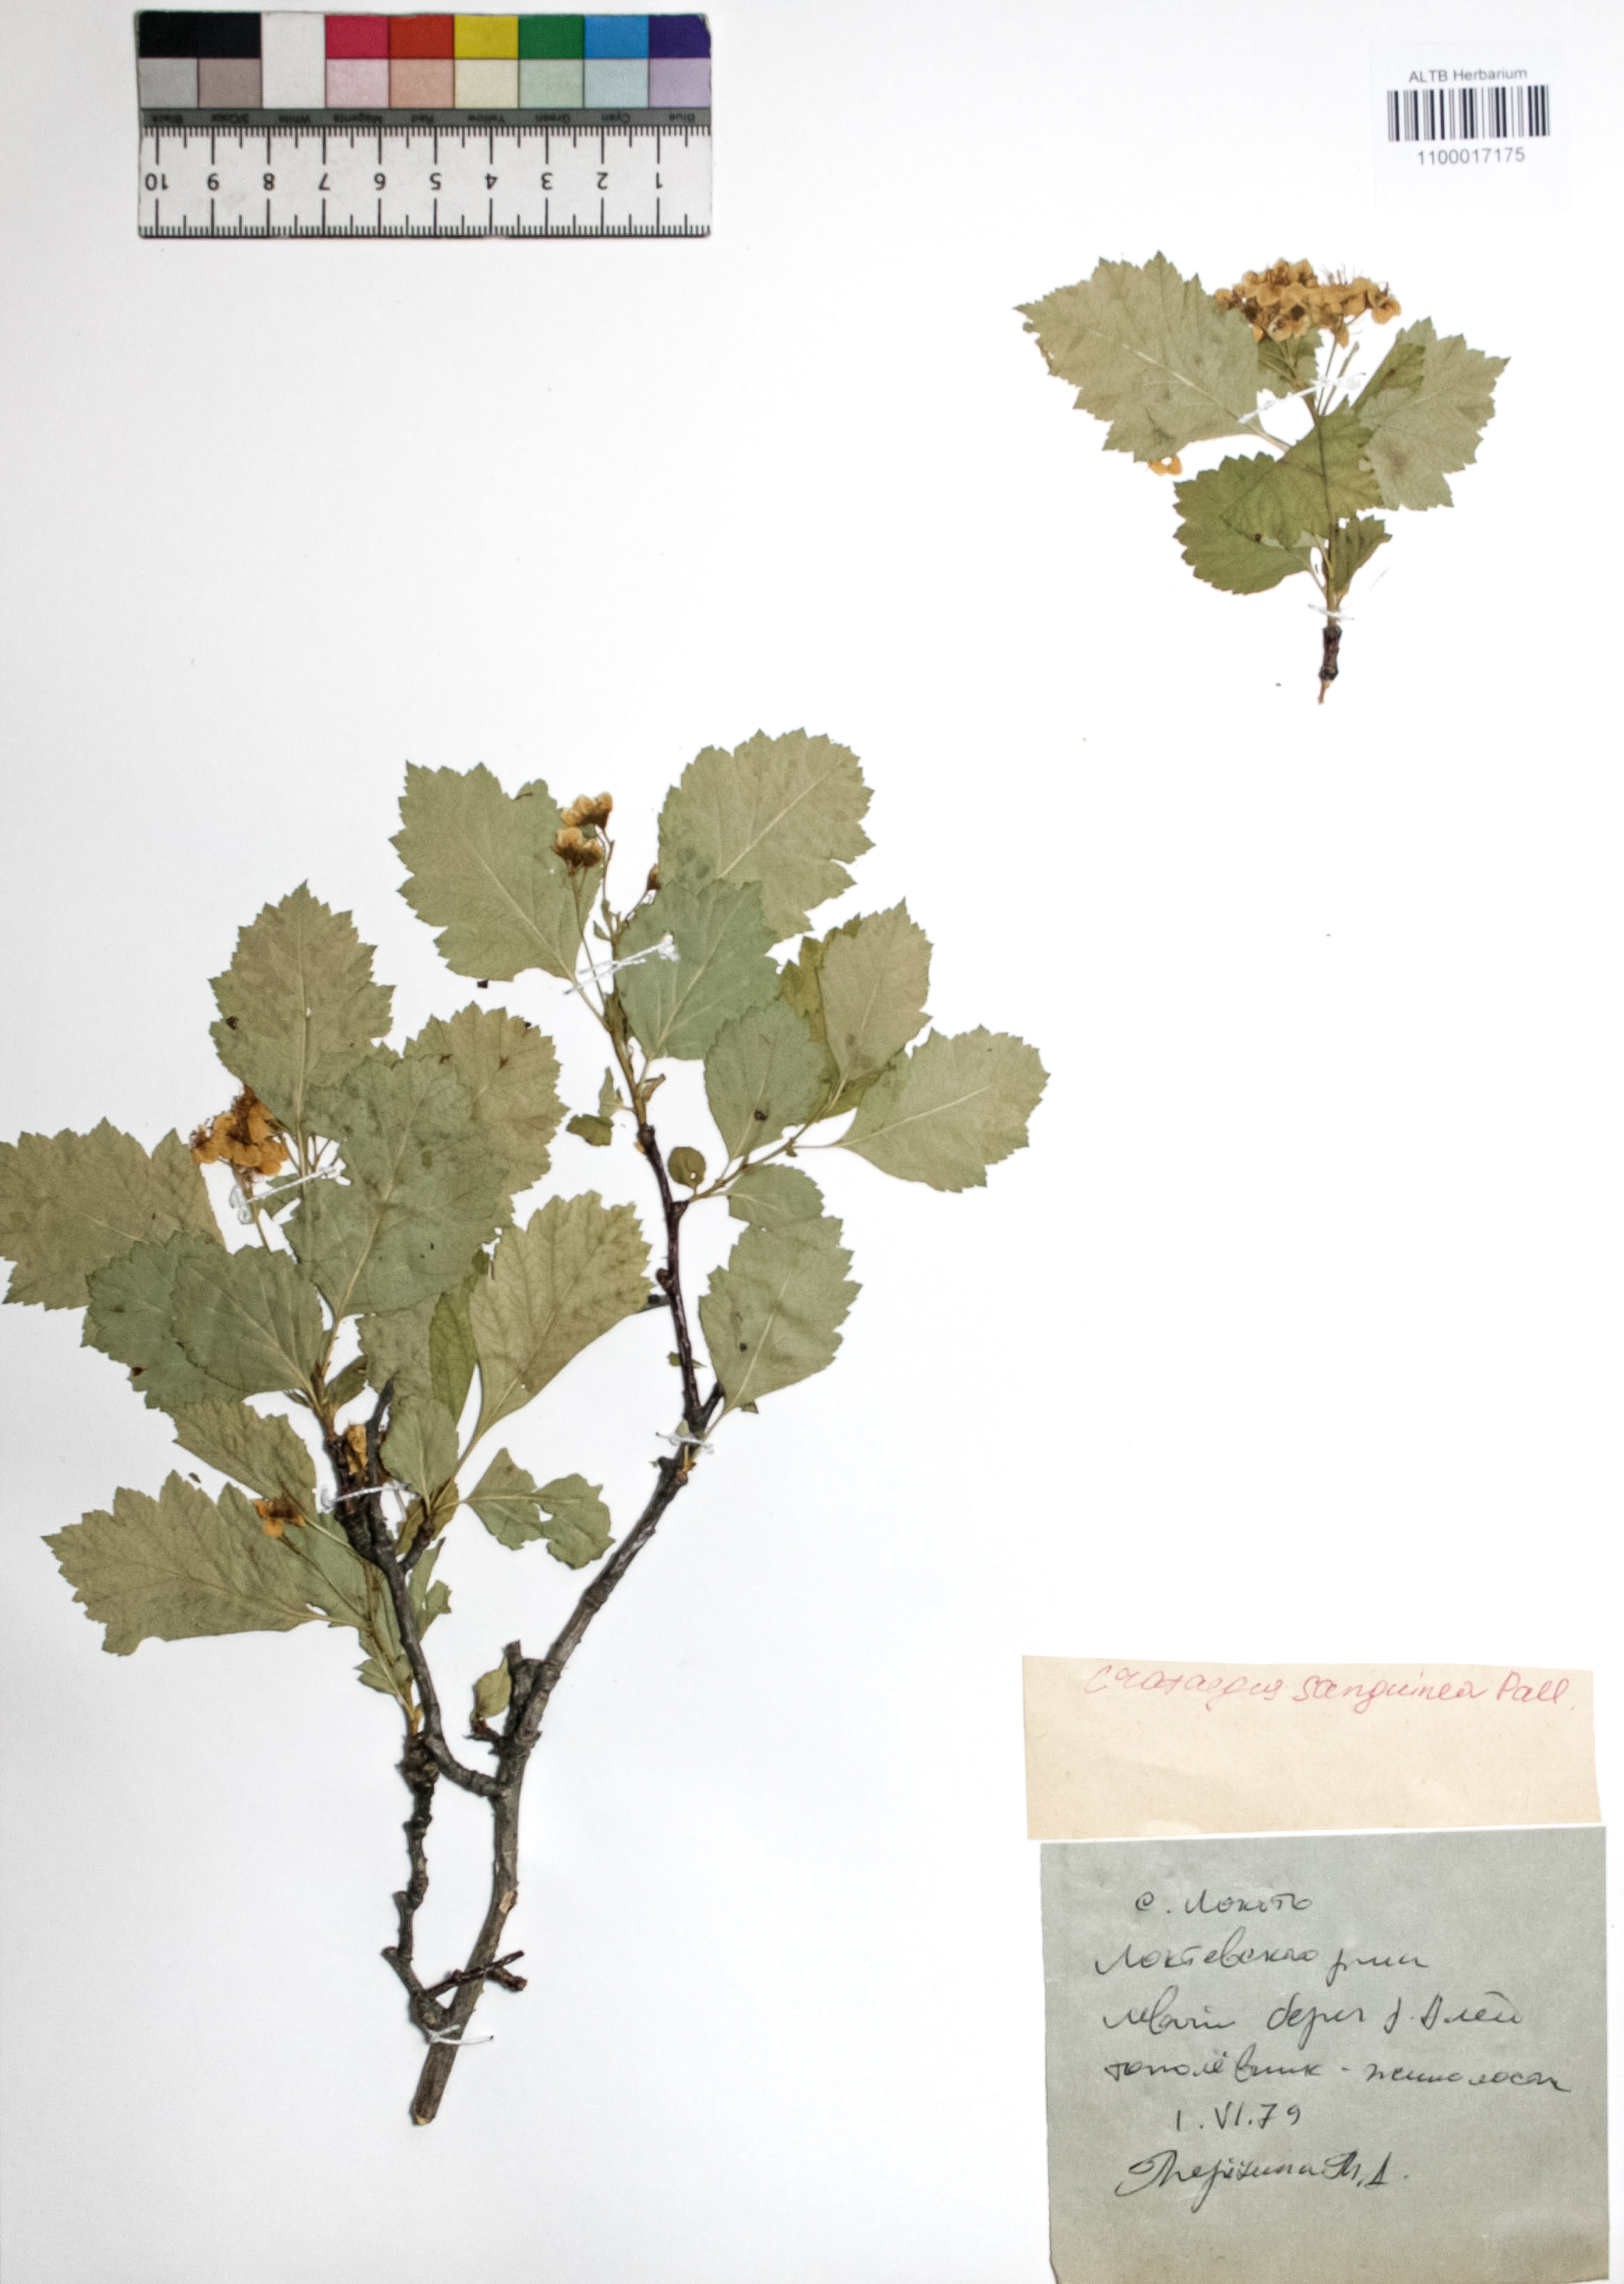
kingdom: Plantae
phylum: Tracheophyta
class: Magnoliopsida
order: Rosales
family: Rosaceae
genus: Crataegus
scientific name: Crataegus sanguinea
